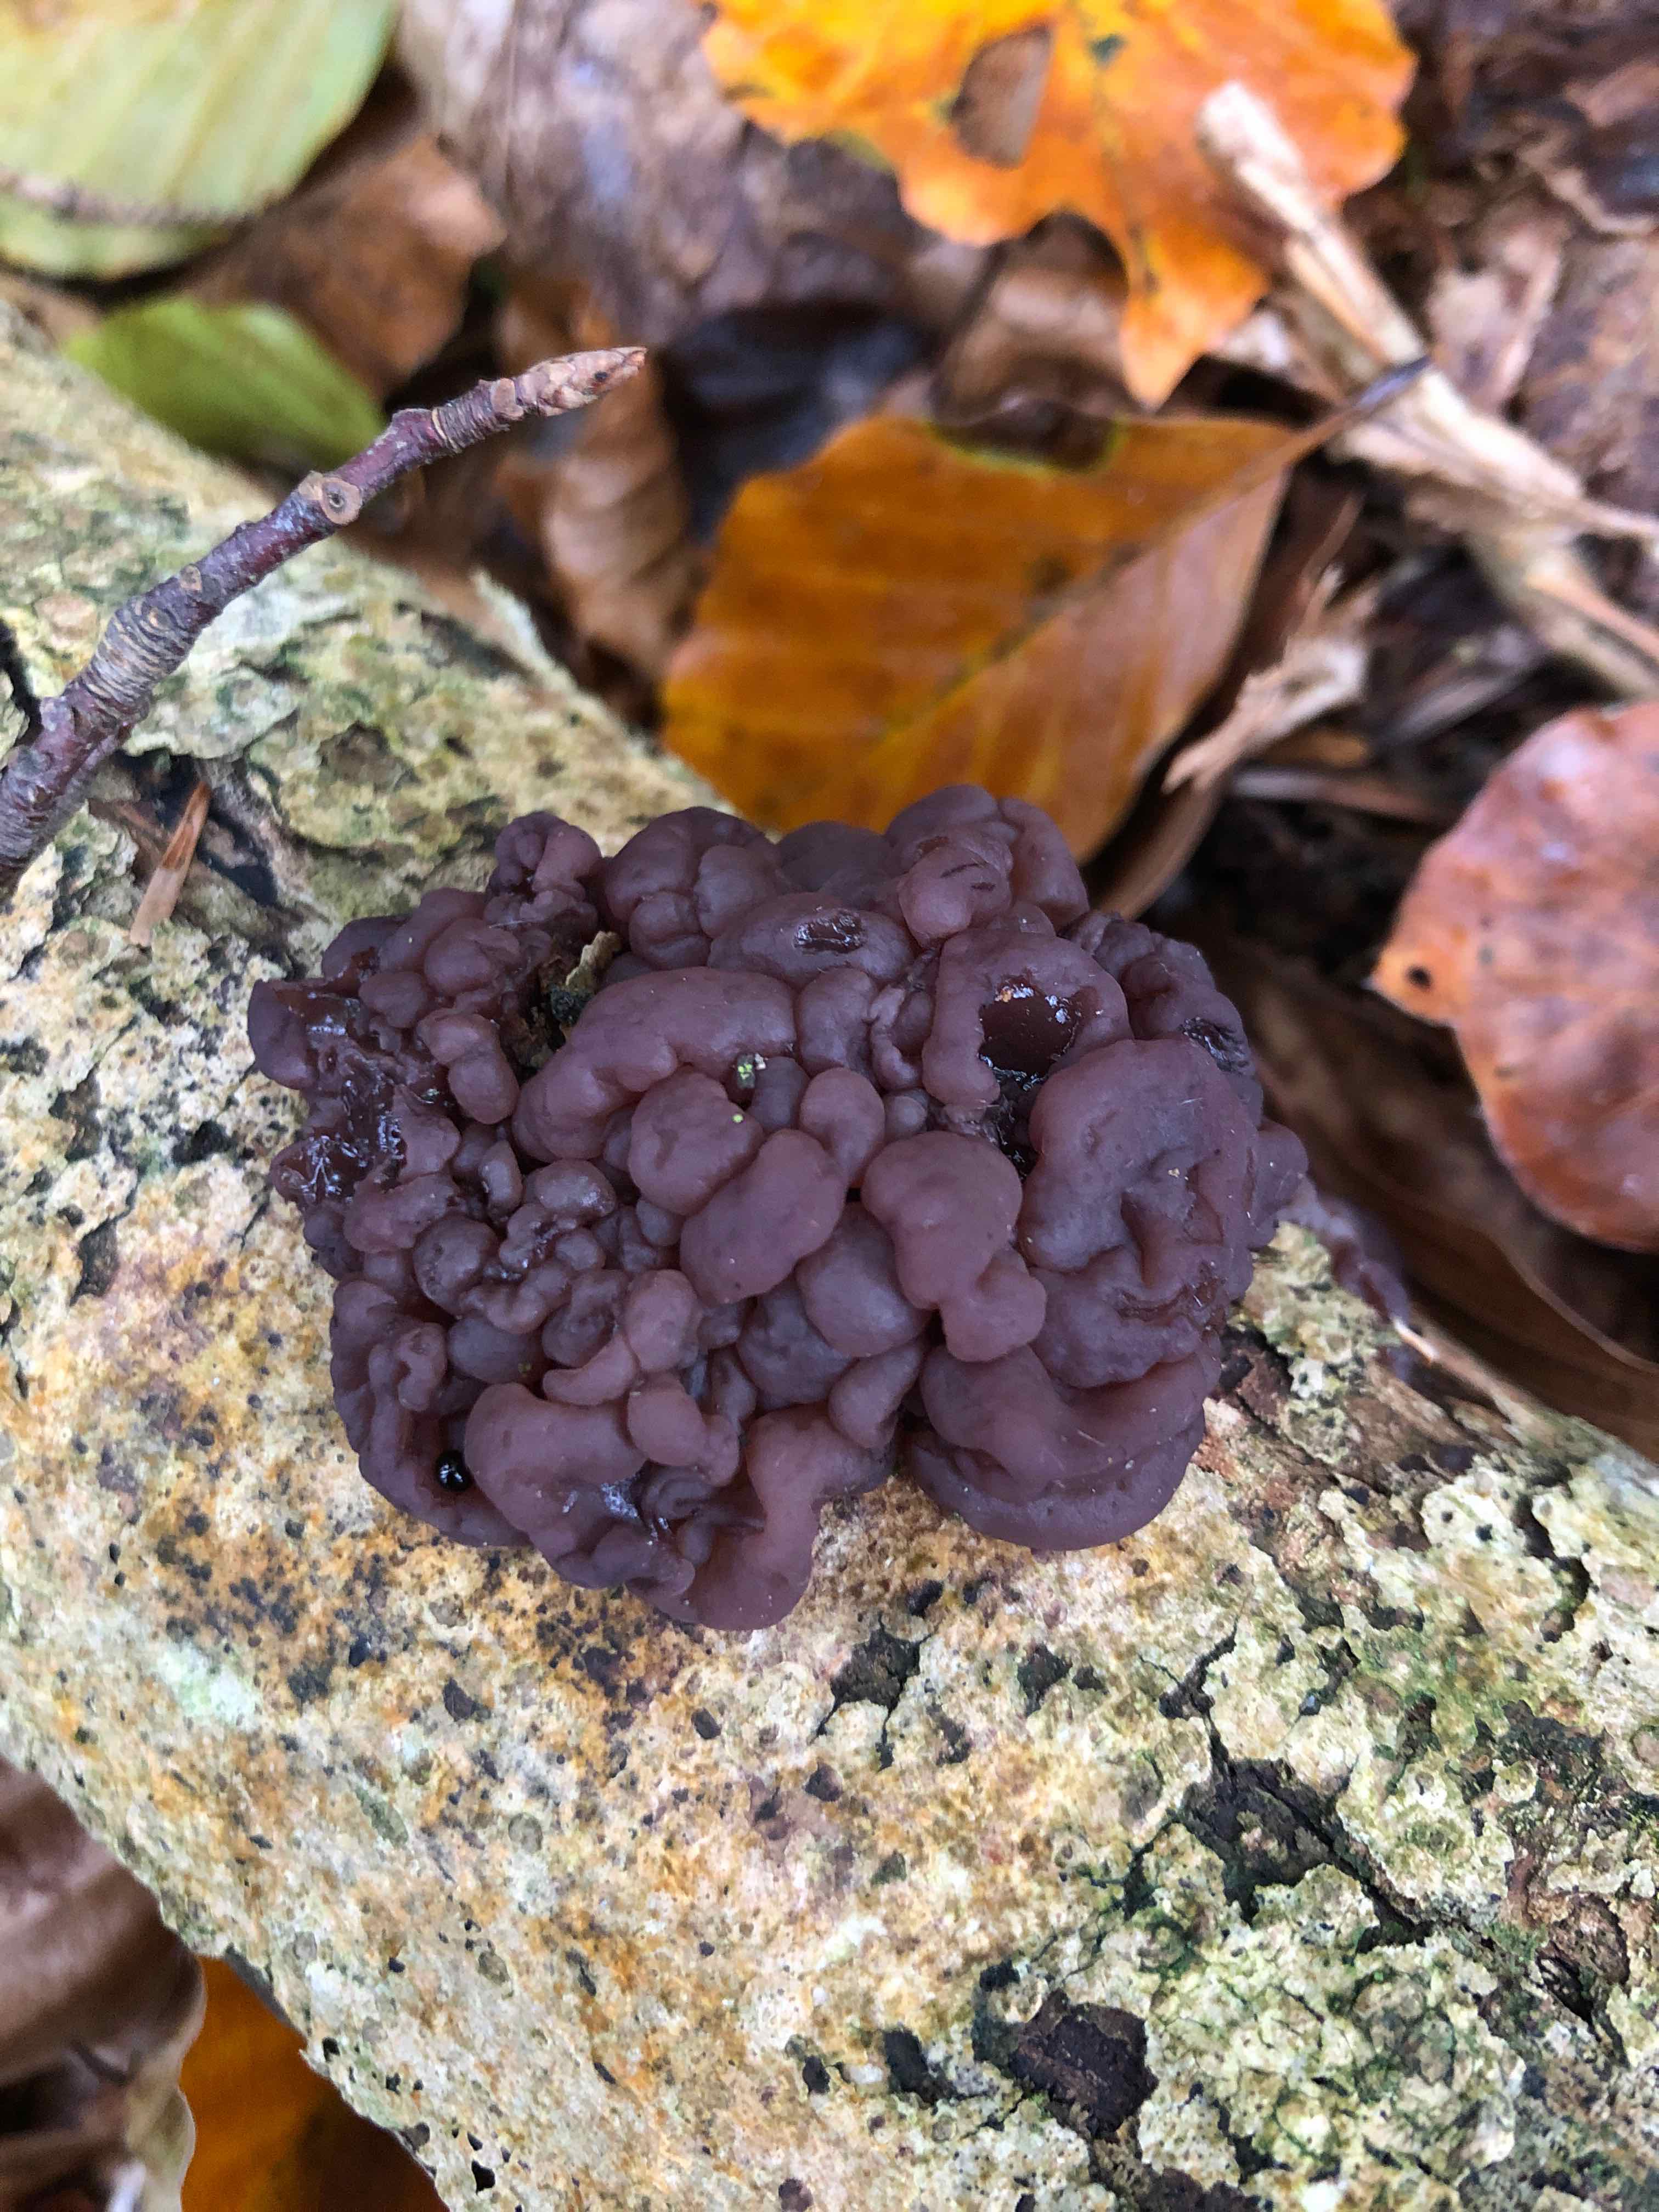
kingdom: Fungi
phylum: Ascomycota
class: Leotiomycetes
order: Helotiales
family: Gelatinodiscaceae
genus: Ascotremella
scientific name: Ascotremella faginea
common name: hjerne-bævreskive
